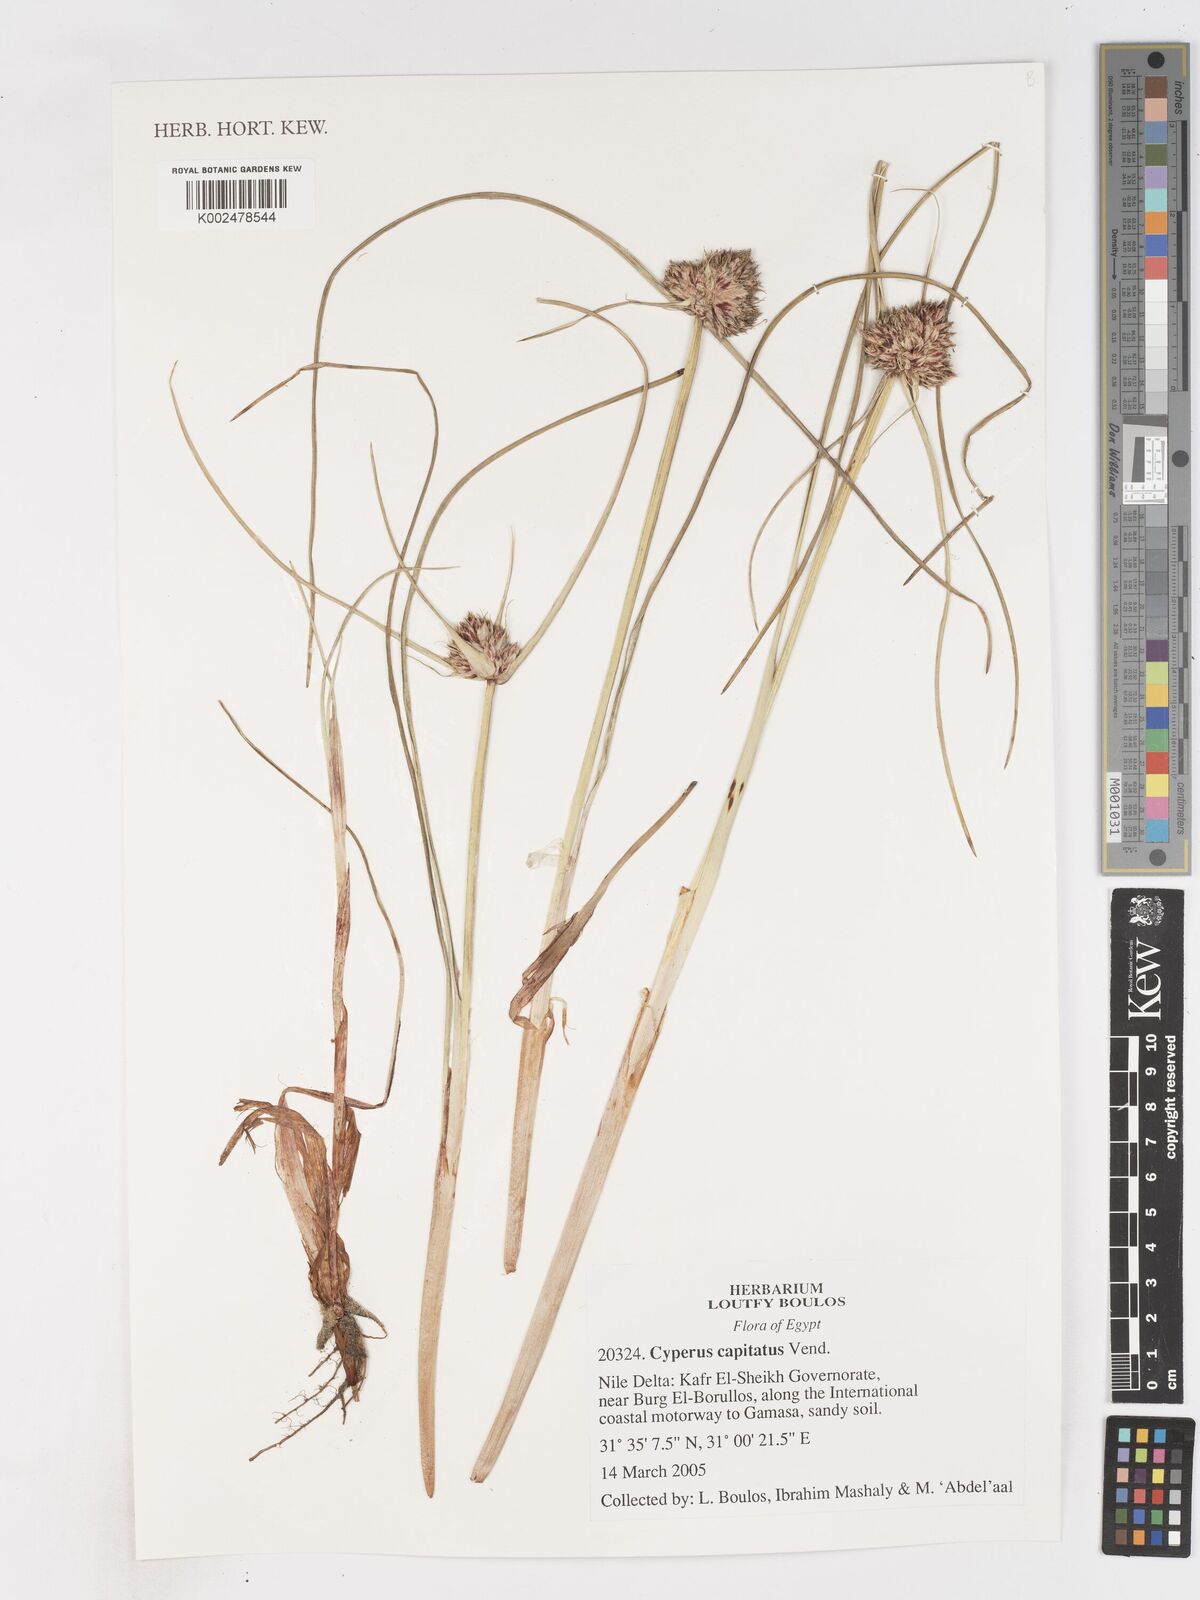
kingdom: Plantae
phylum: Tracheophyta
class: Liliopsida
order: Poales
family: Cyperaceae
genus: Cyperus
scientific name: Cyperus capitatus
